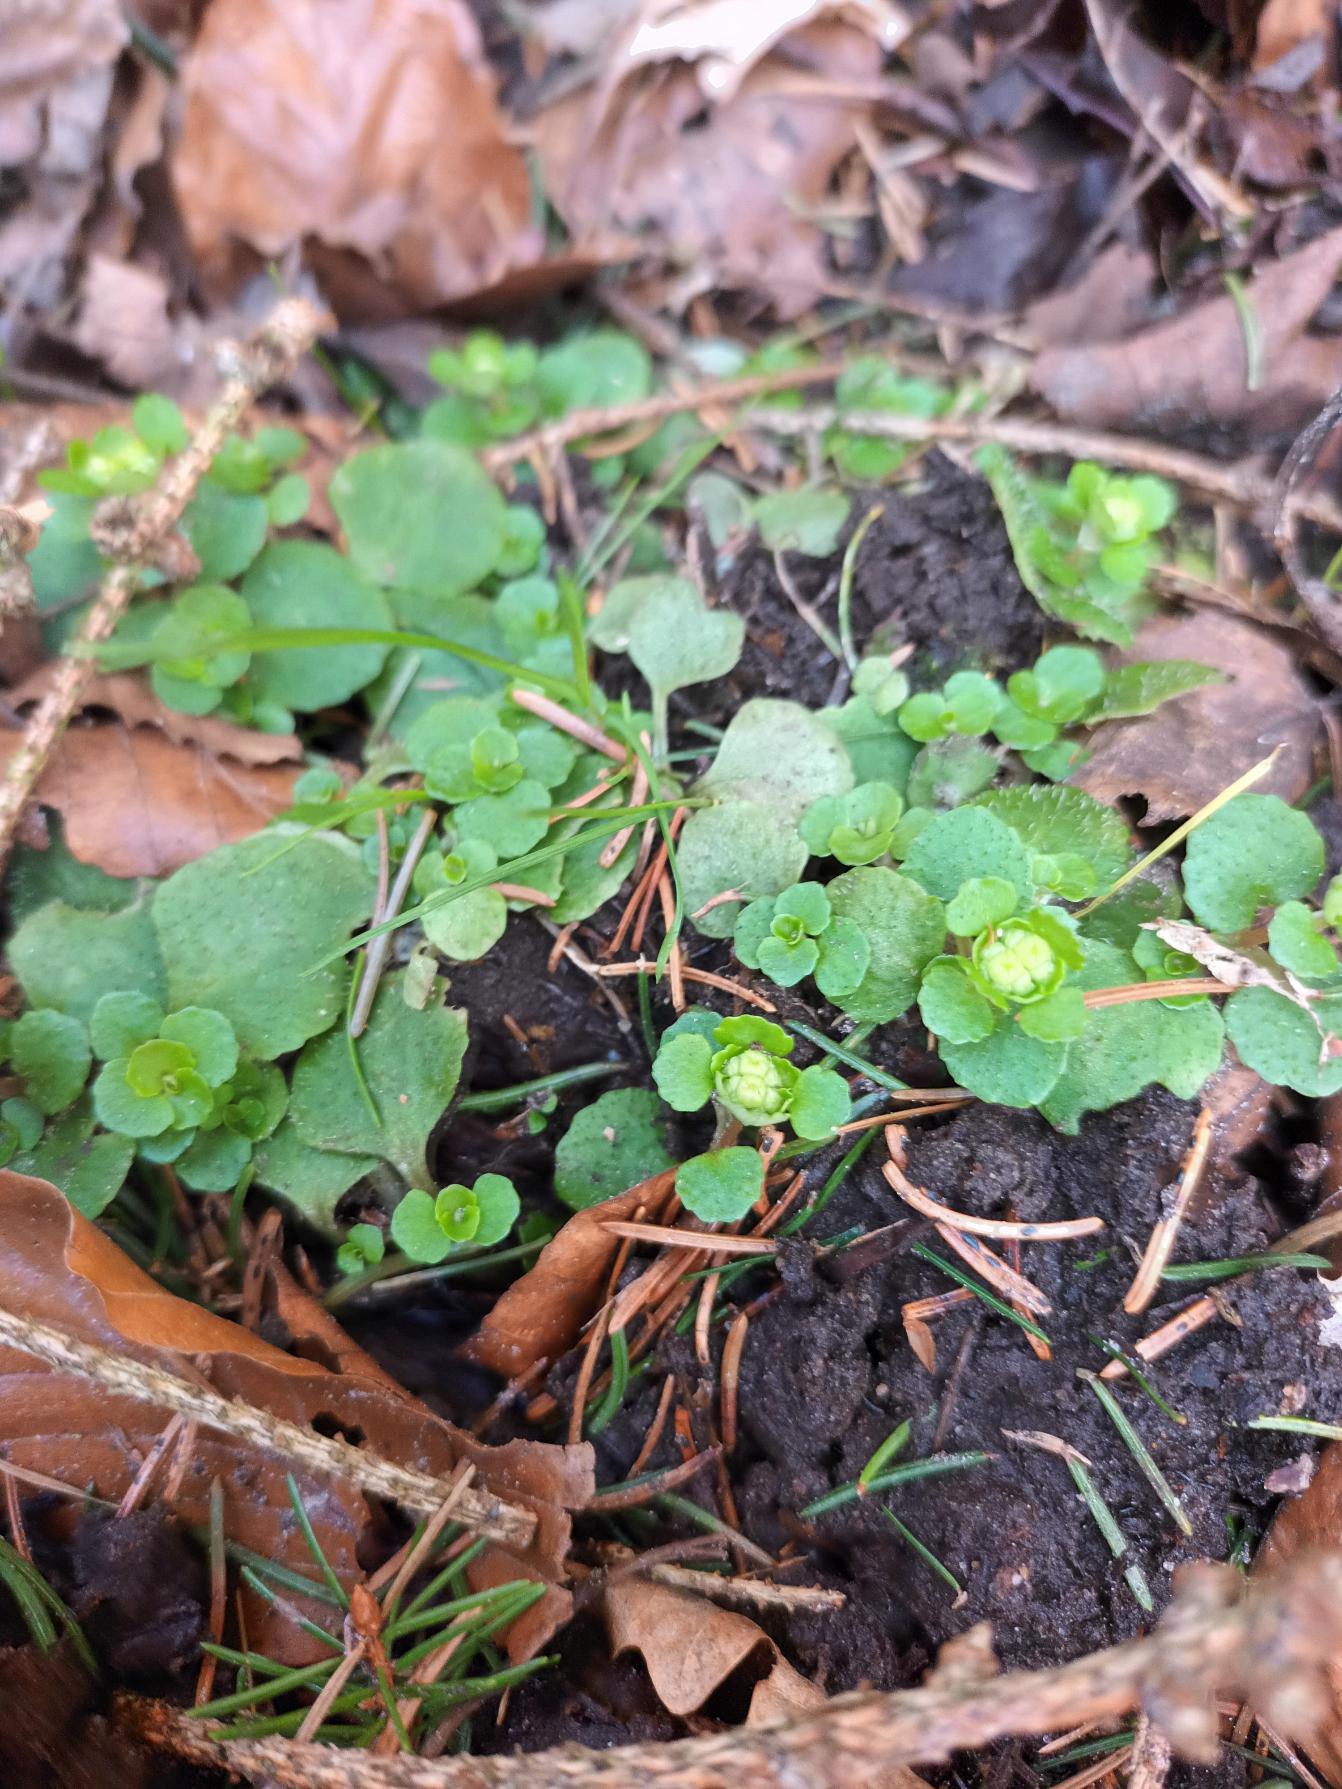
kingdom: Plantae
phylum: Tracheophyta
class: Magnoliopsida
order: Saxifragales
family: Saxifragaceae
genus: Chrysosplenium
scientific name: Chrysosplenium oppositifolium
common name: Småbladet milturt
